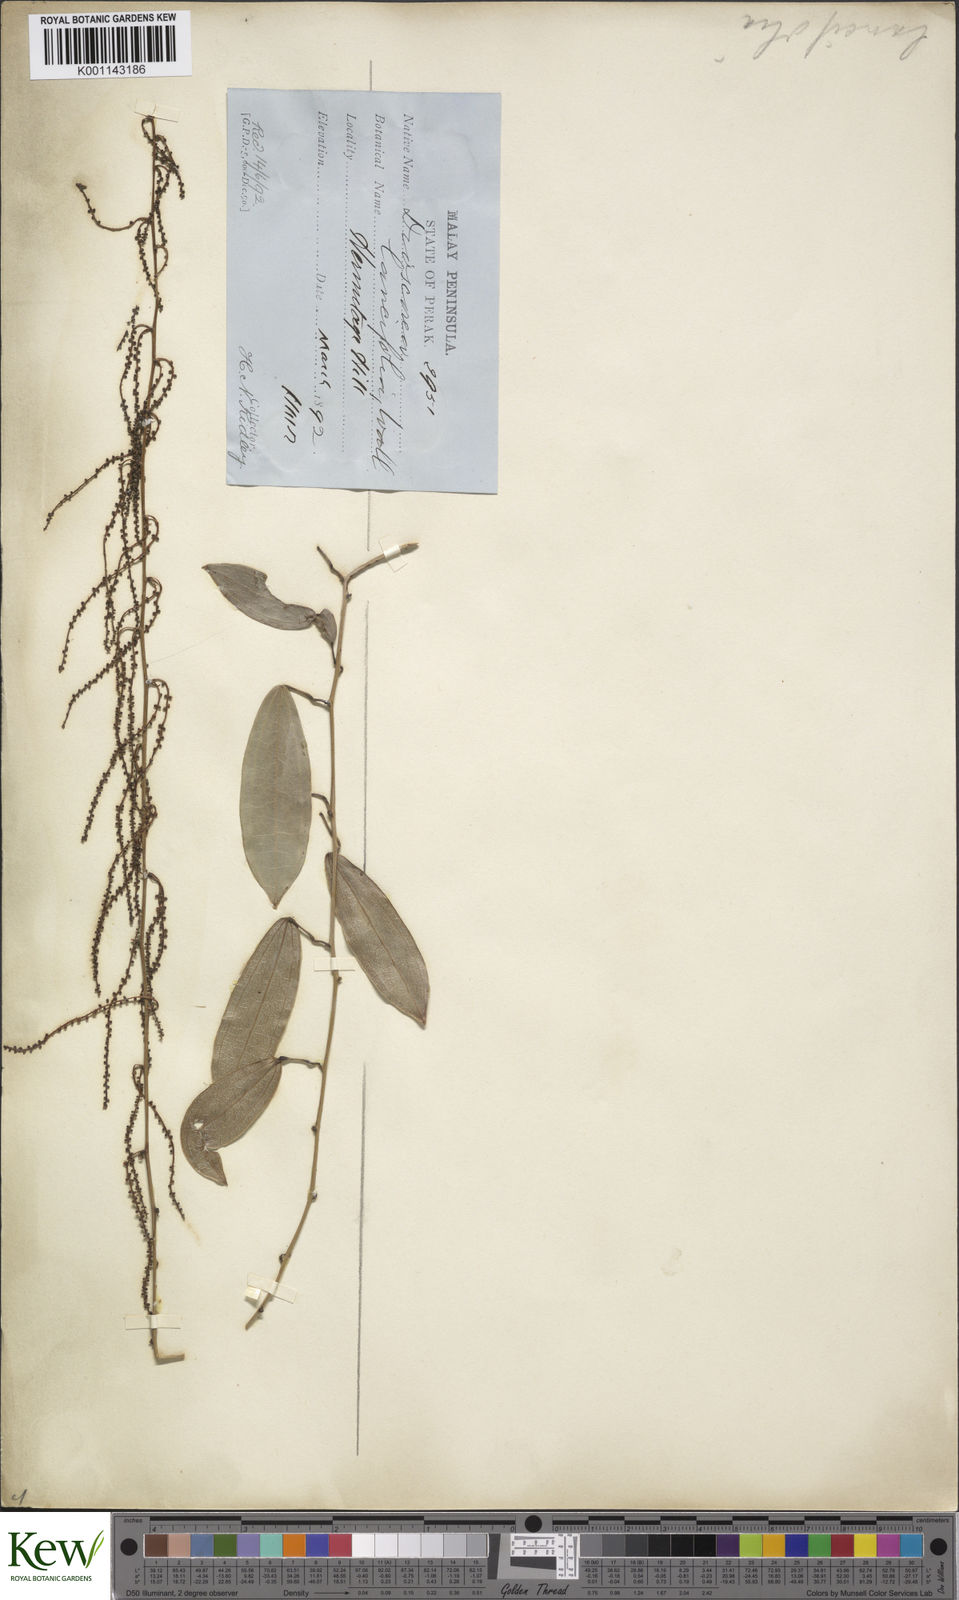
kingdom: Plantae
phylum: Tracheophyta
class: Liliopsida
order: Dioscoreales
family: Dioscoreaceae
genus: Dioscorea
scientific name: Dioscorea laurifolia
